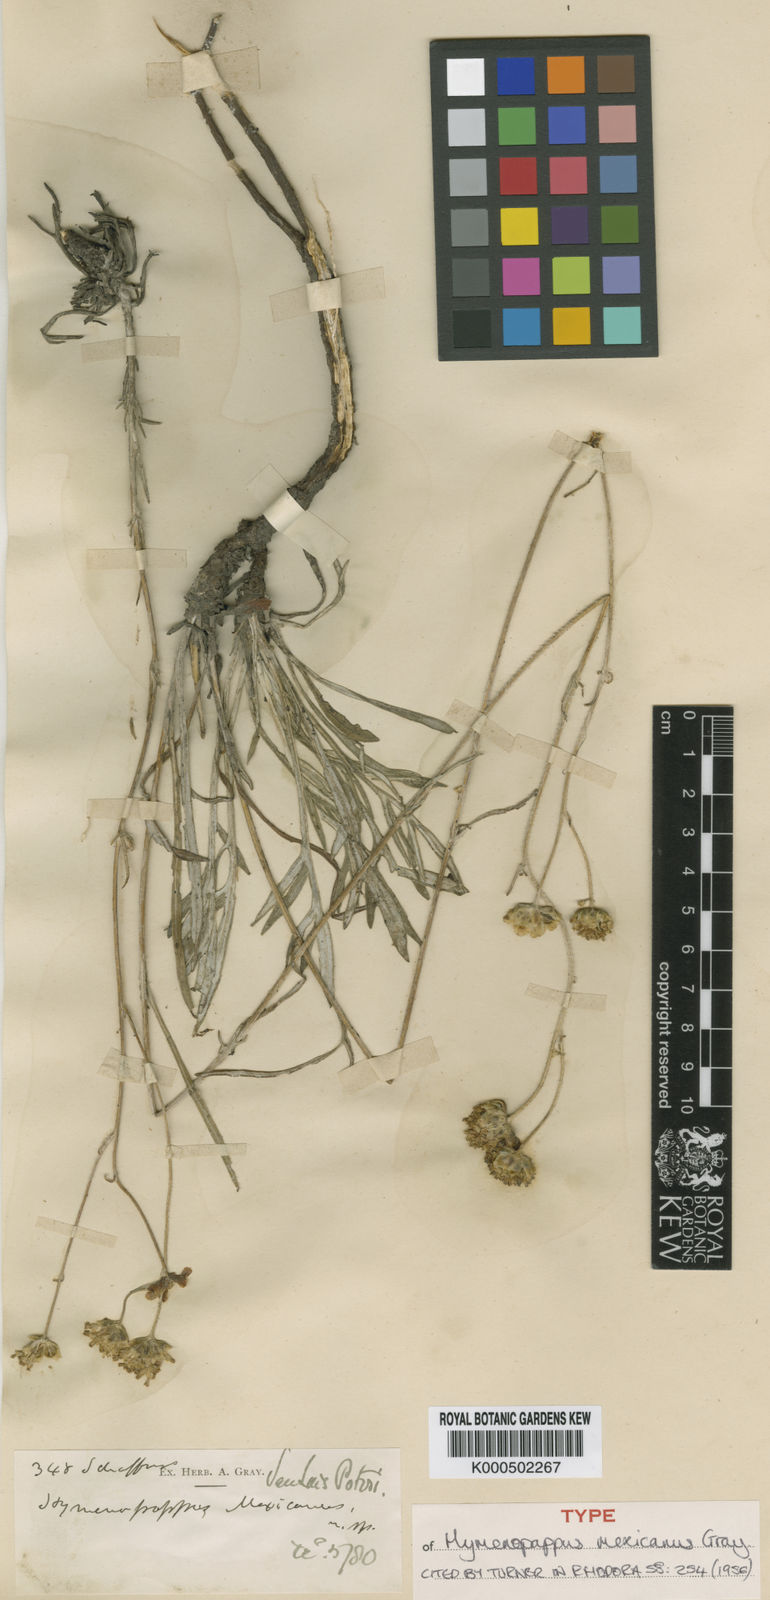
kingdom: Plantae
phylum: Tracheophyta
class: Magnoliopsida
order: Asterales
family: Asteraceae
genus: Hymenopappus
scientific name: Hymenopappus mexicanus
